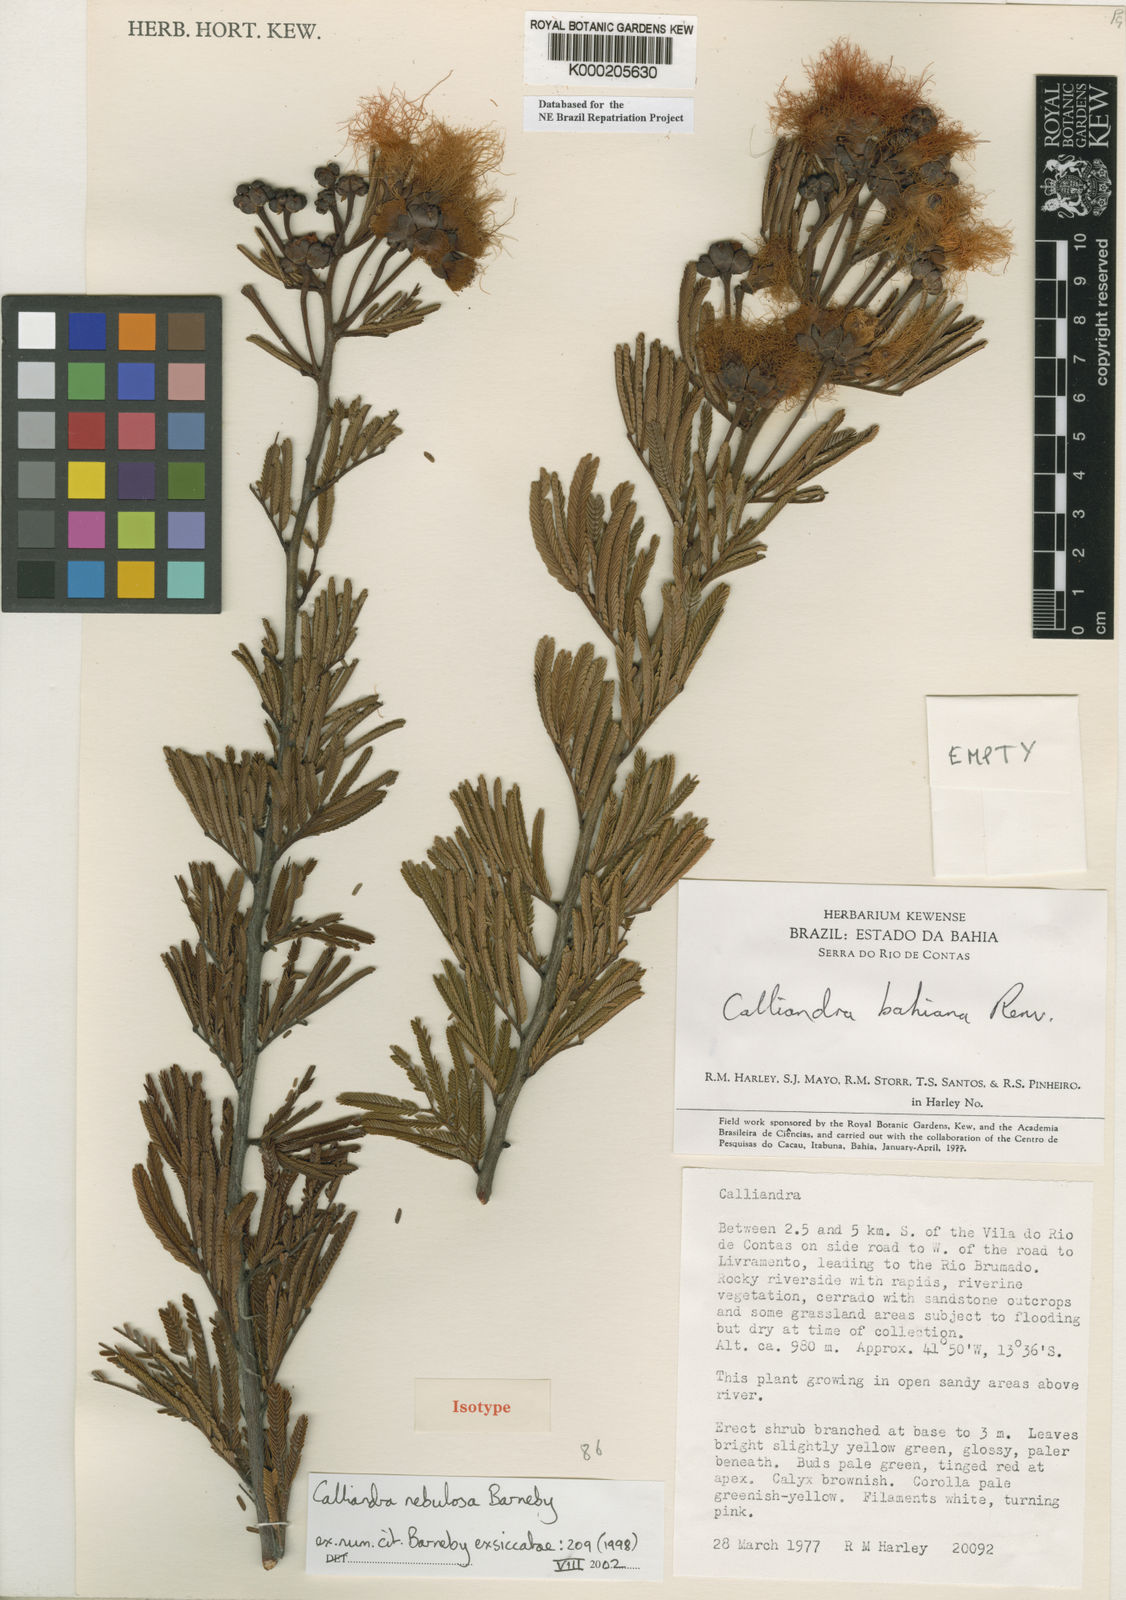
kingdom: Plantae
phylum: Tracheophyta
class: Magnoliopsida
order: Fabales
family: Fabaceae
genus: Calliandra
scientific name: Calliandra nebulosa
